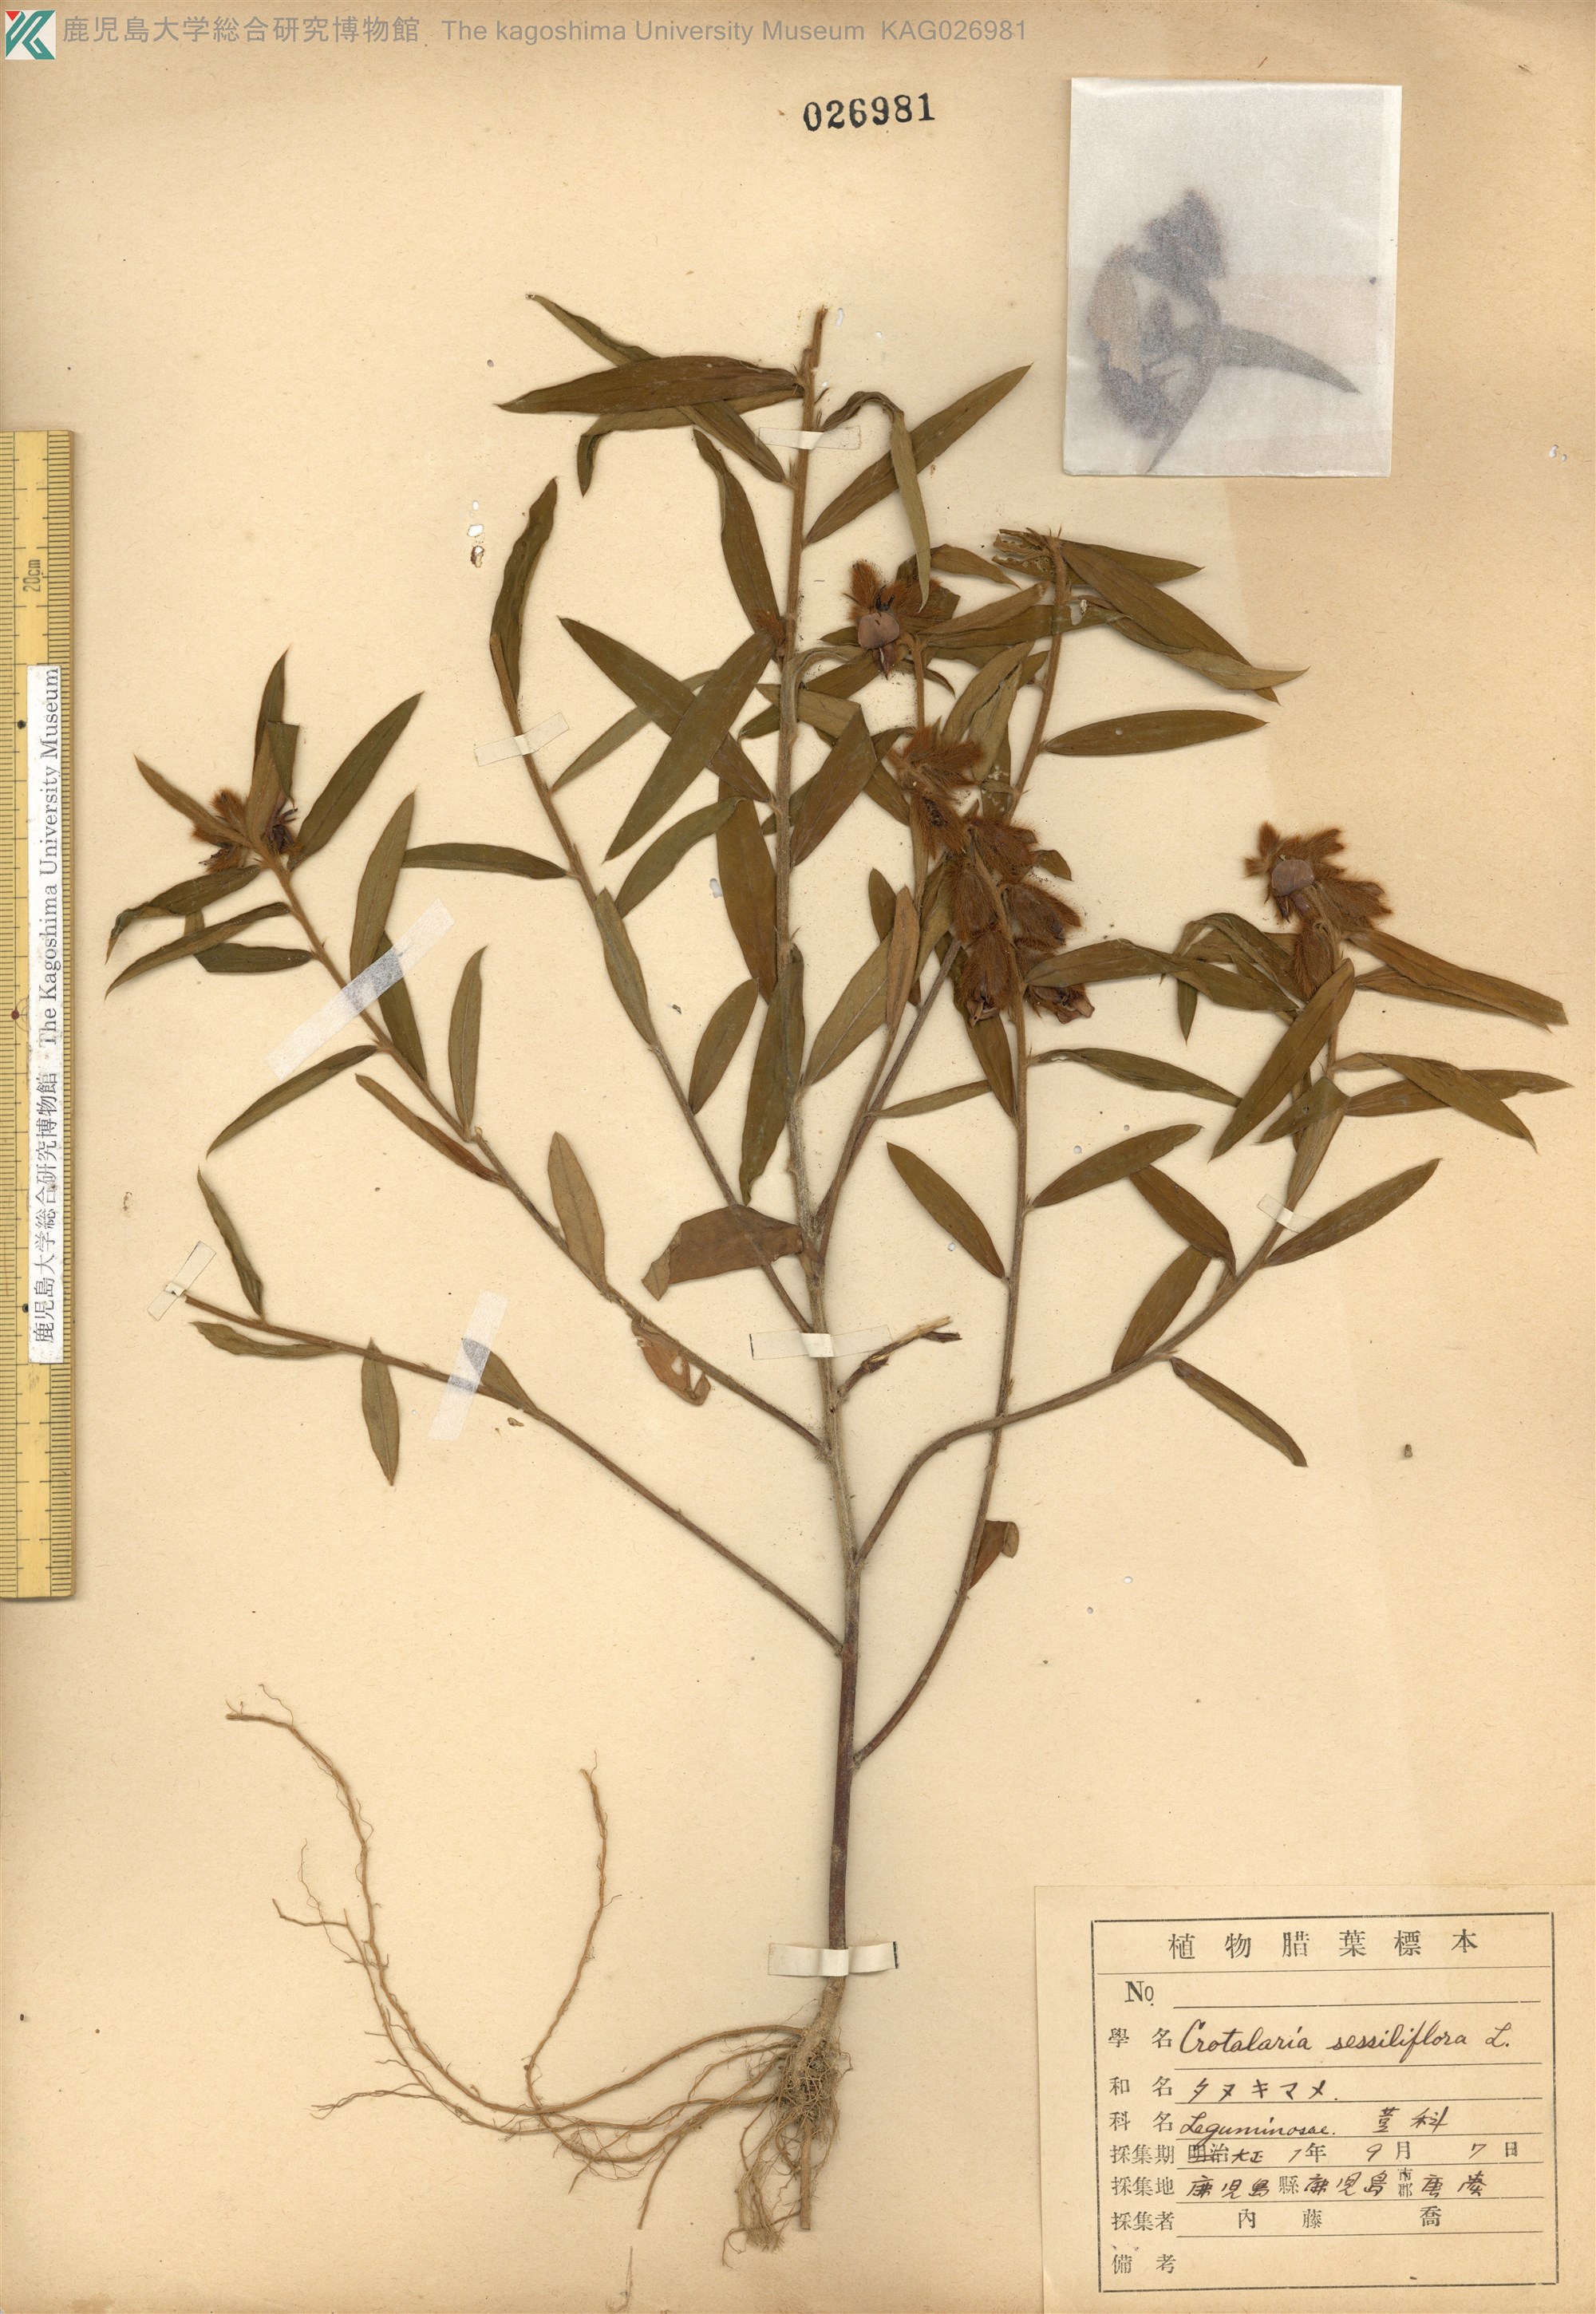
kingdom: Plantae
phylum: Tracheophyta
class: Magnoliopsida
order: Fabales
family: Fabaceae
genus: Crotalaria
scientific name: Crotalaria sessiliflora
